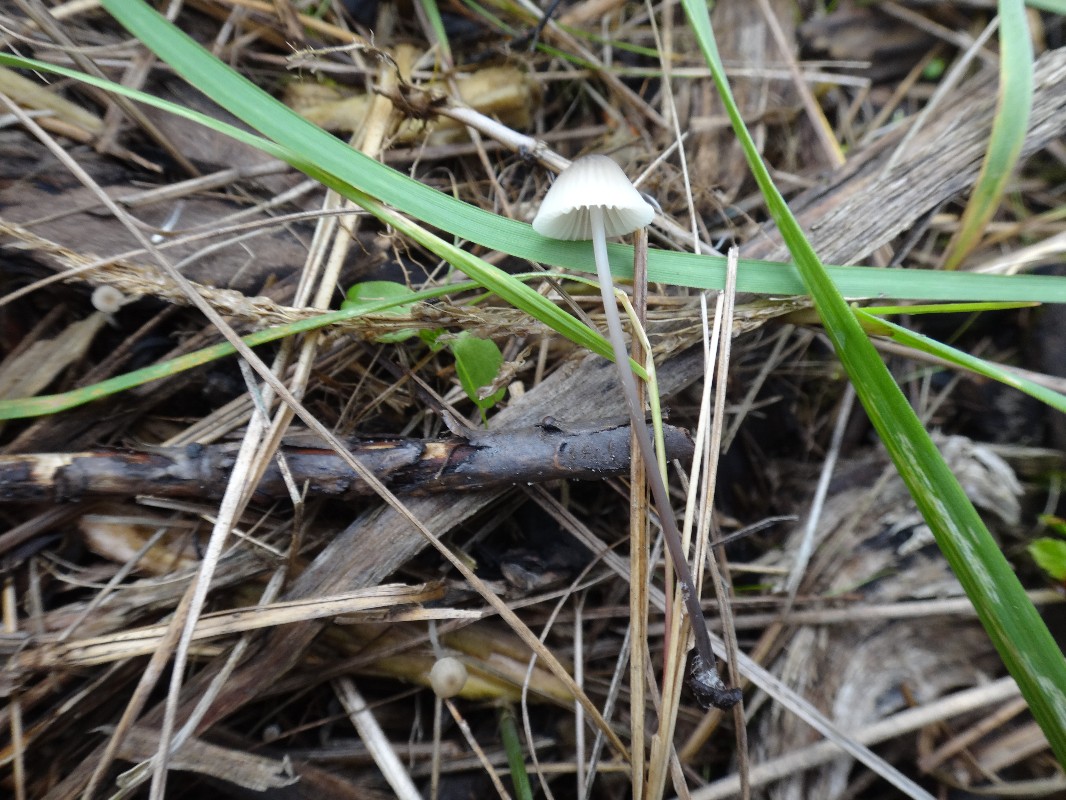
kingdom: Fungi
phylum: Basidiomycota
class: Agaricomycetes
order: Agaricales
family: Mycenaceae
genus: Mycena
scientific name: Mycena leptocephala
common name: klor-huesvamp
